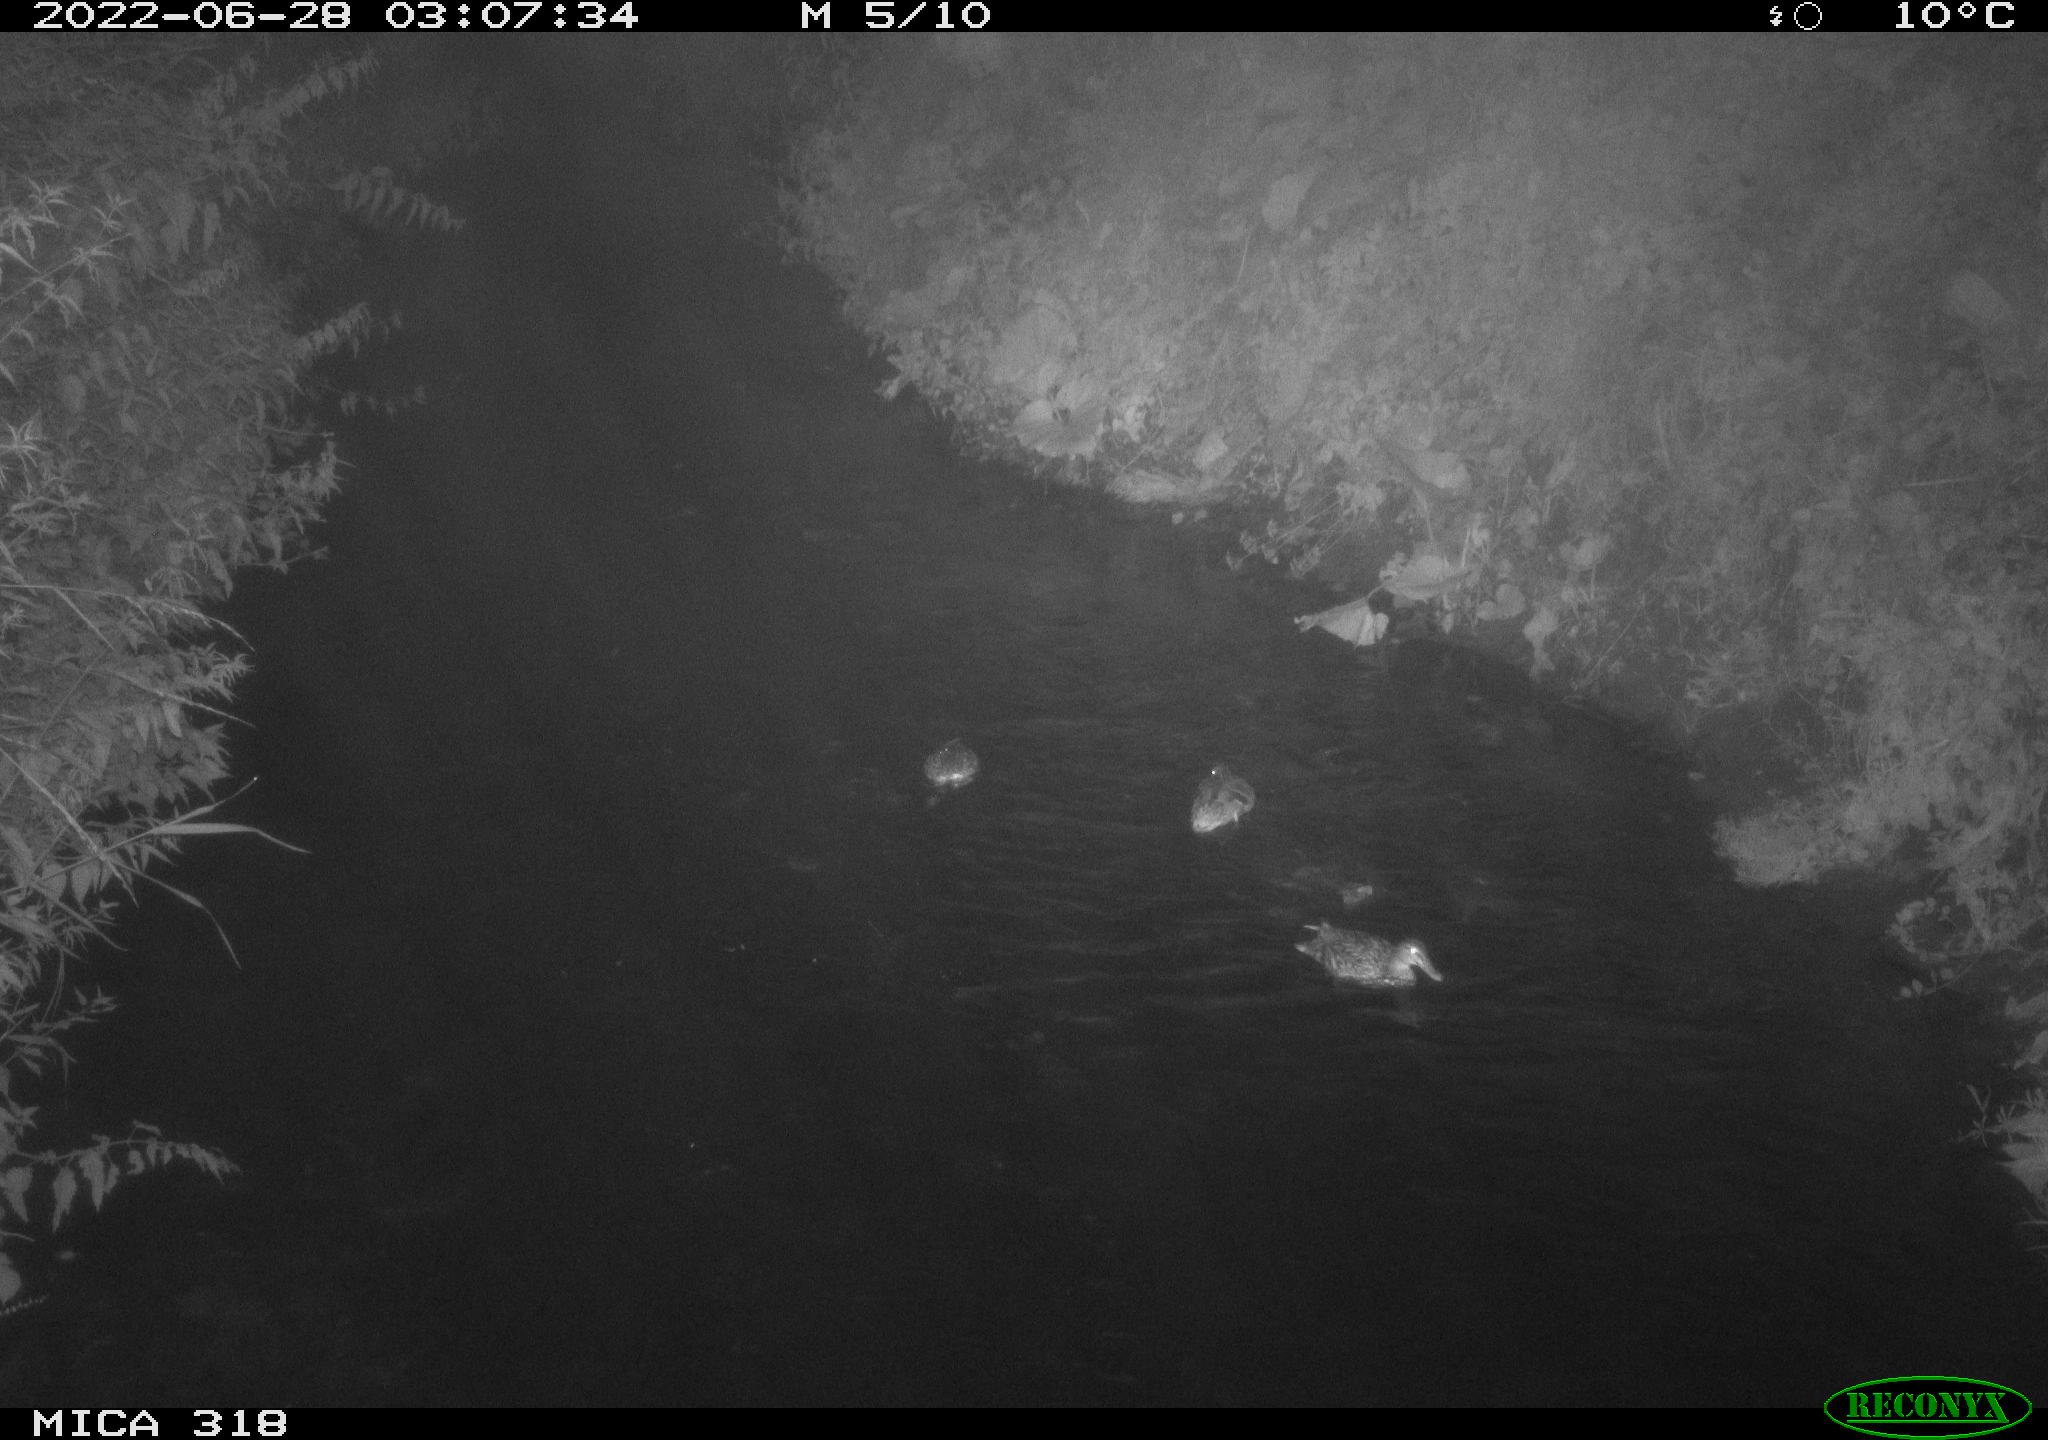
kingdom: Animalia
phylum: Chordata
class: Aves
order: Anseriformes
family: Anatidae
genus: Anas
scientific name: Anas platyrhynchos
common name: Mallard
